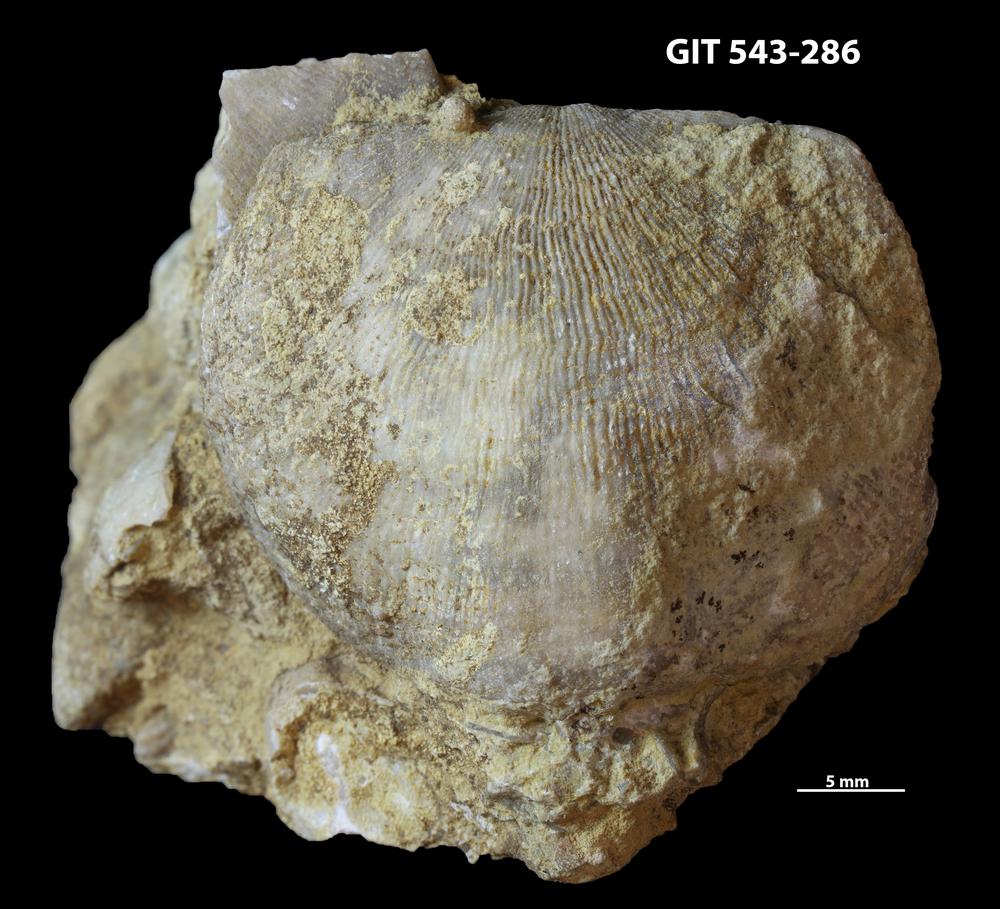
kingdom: Animalia
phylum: Brachiopoda
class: Rhynchonellata
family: Clitambonitidae
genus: Ilmarinia
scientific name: Ilmarinia
